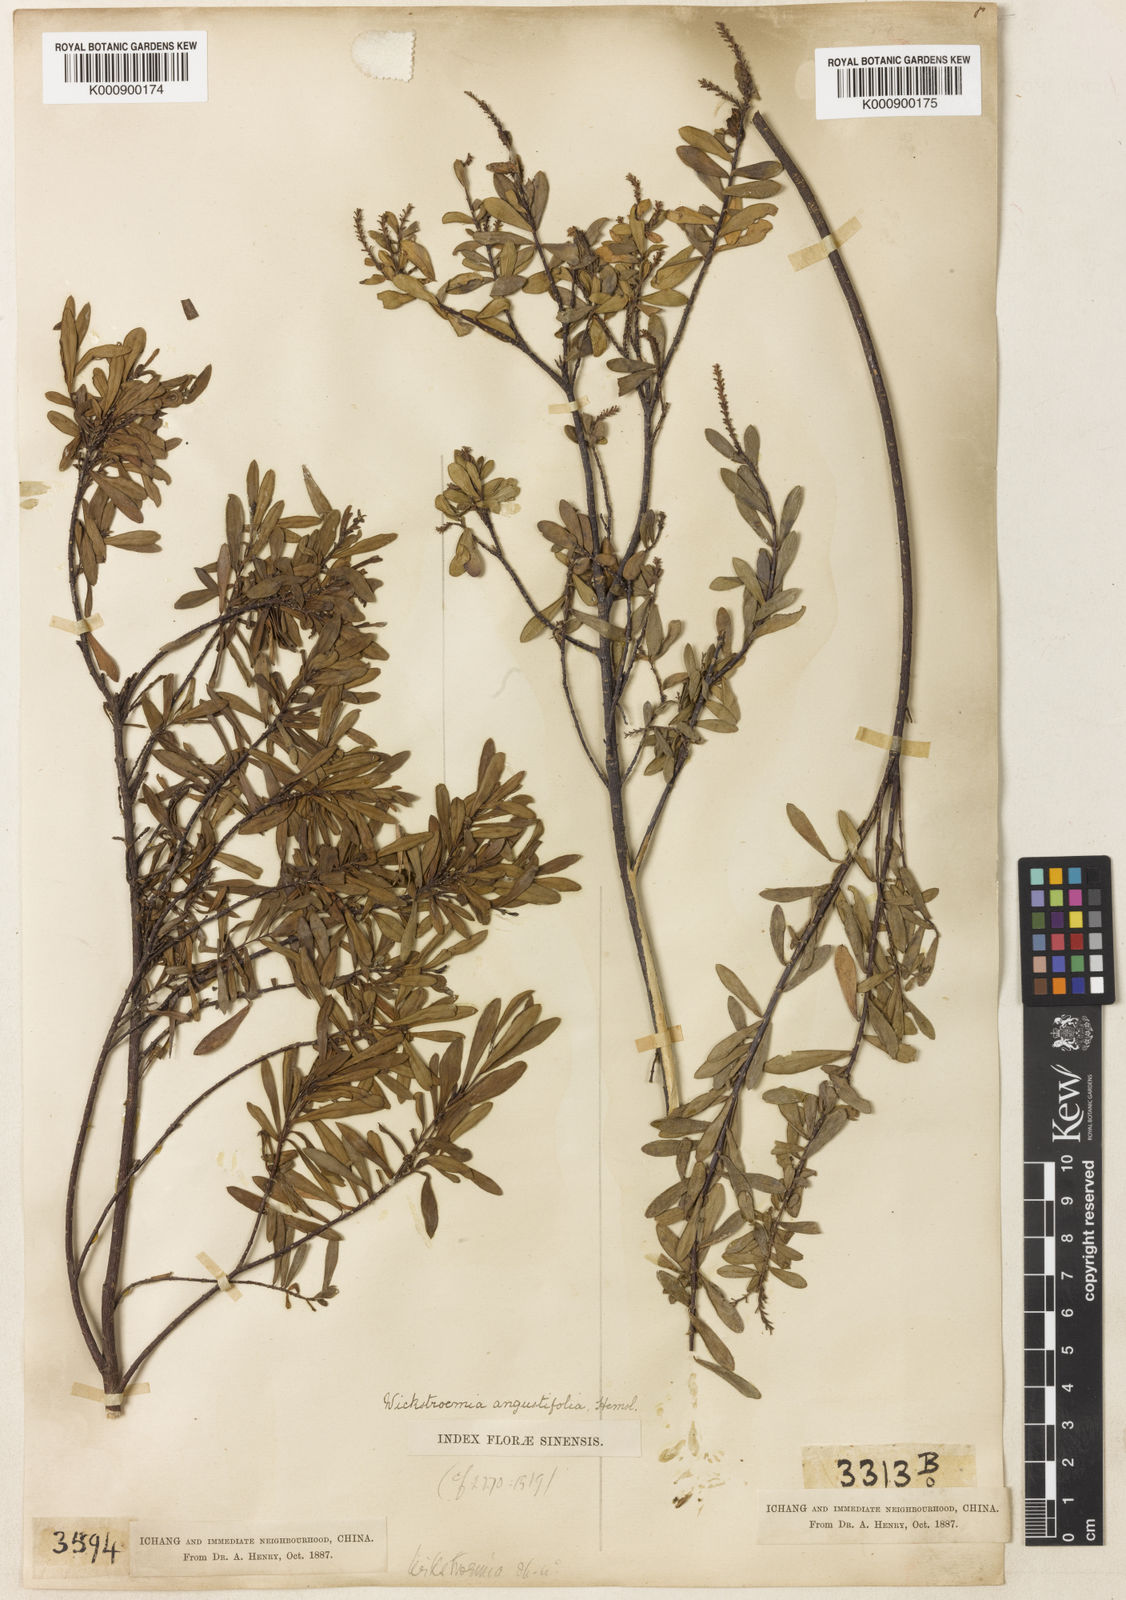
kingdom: Plantae
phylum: Tracheophyta
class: Magnoliopsida
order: Malvales
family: Thymelaeaceae
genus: Wikstroemia
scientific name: Wikstroemia angustifolia
